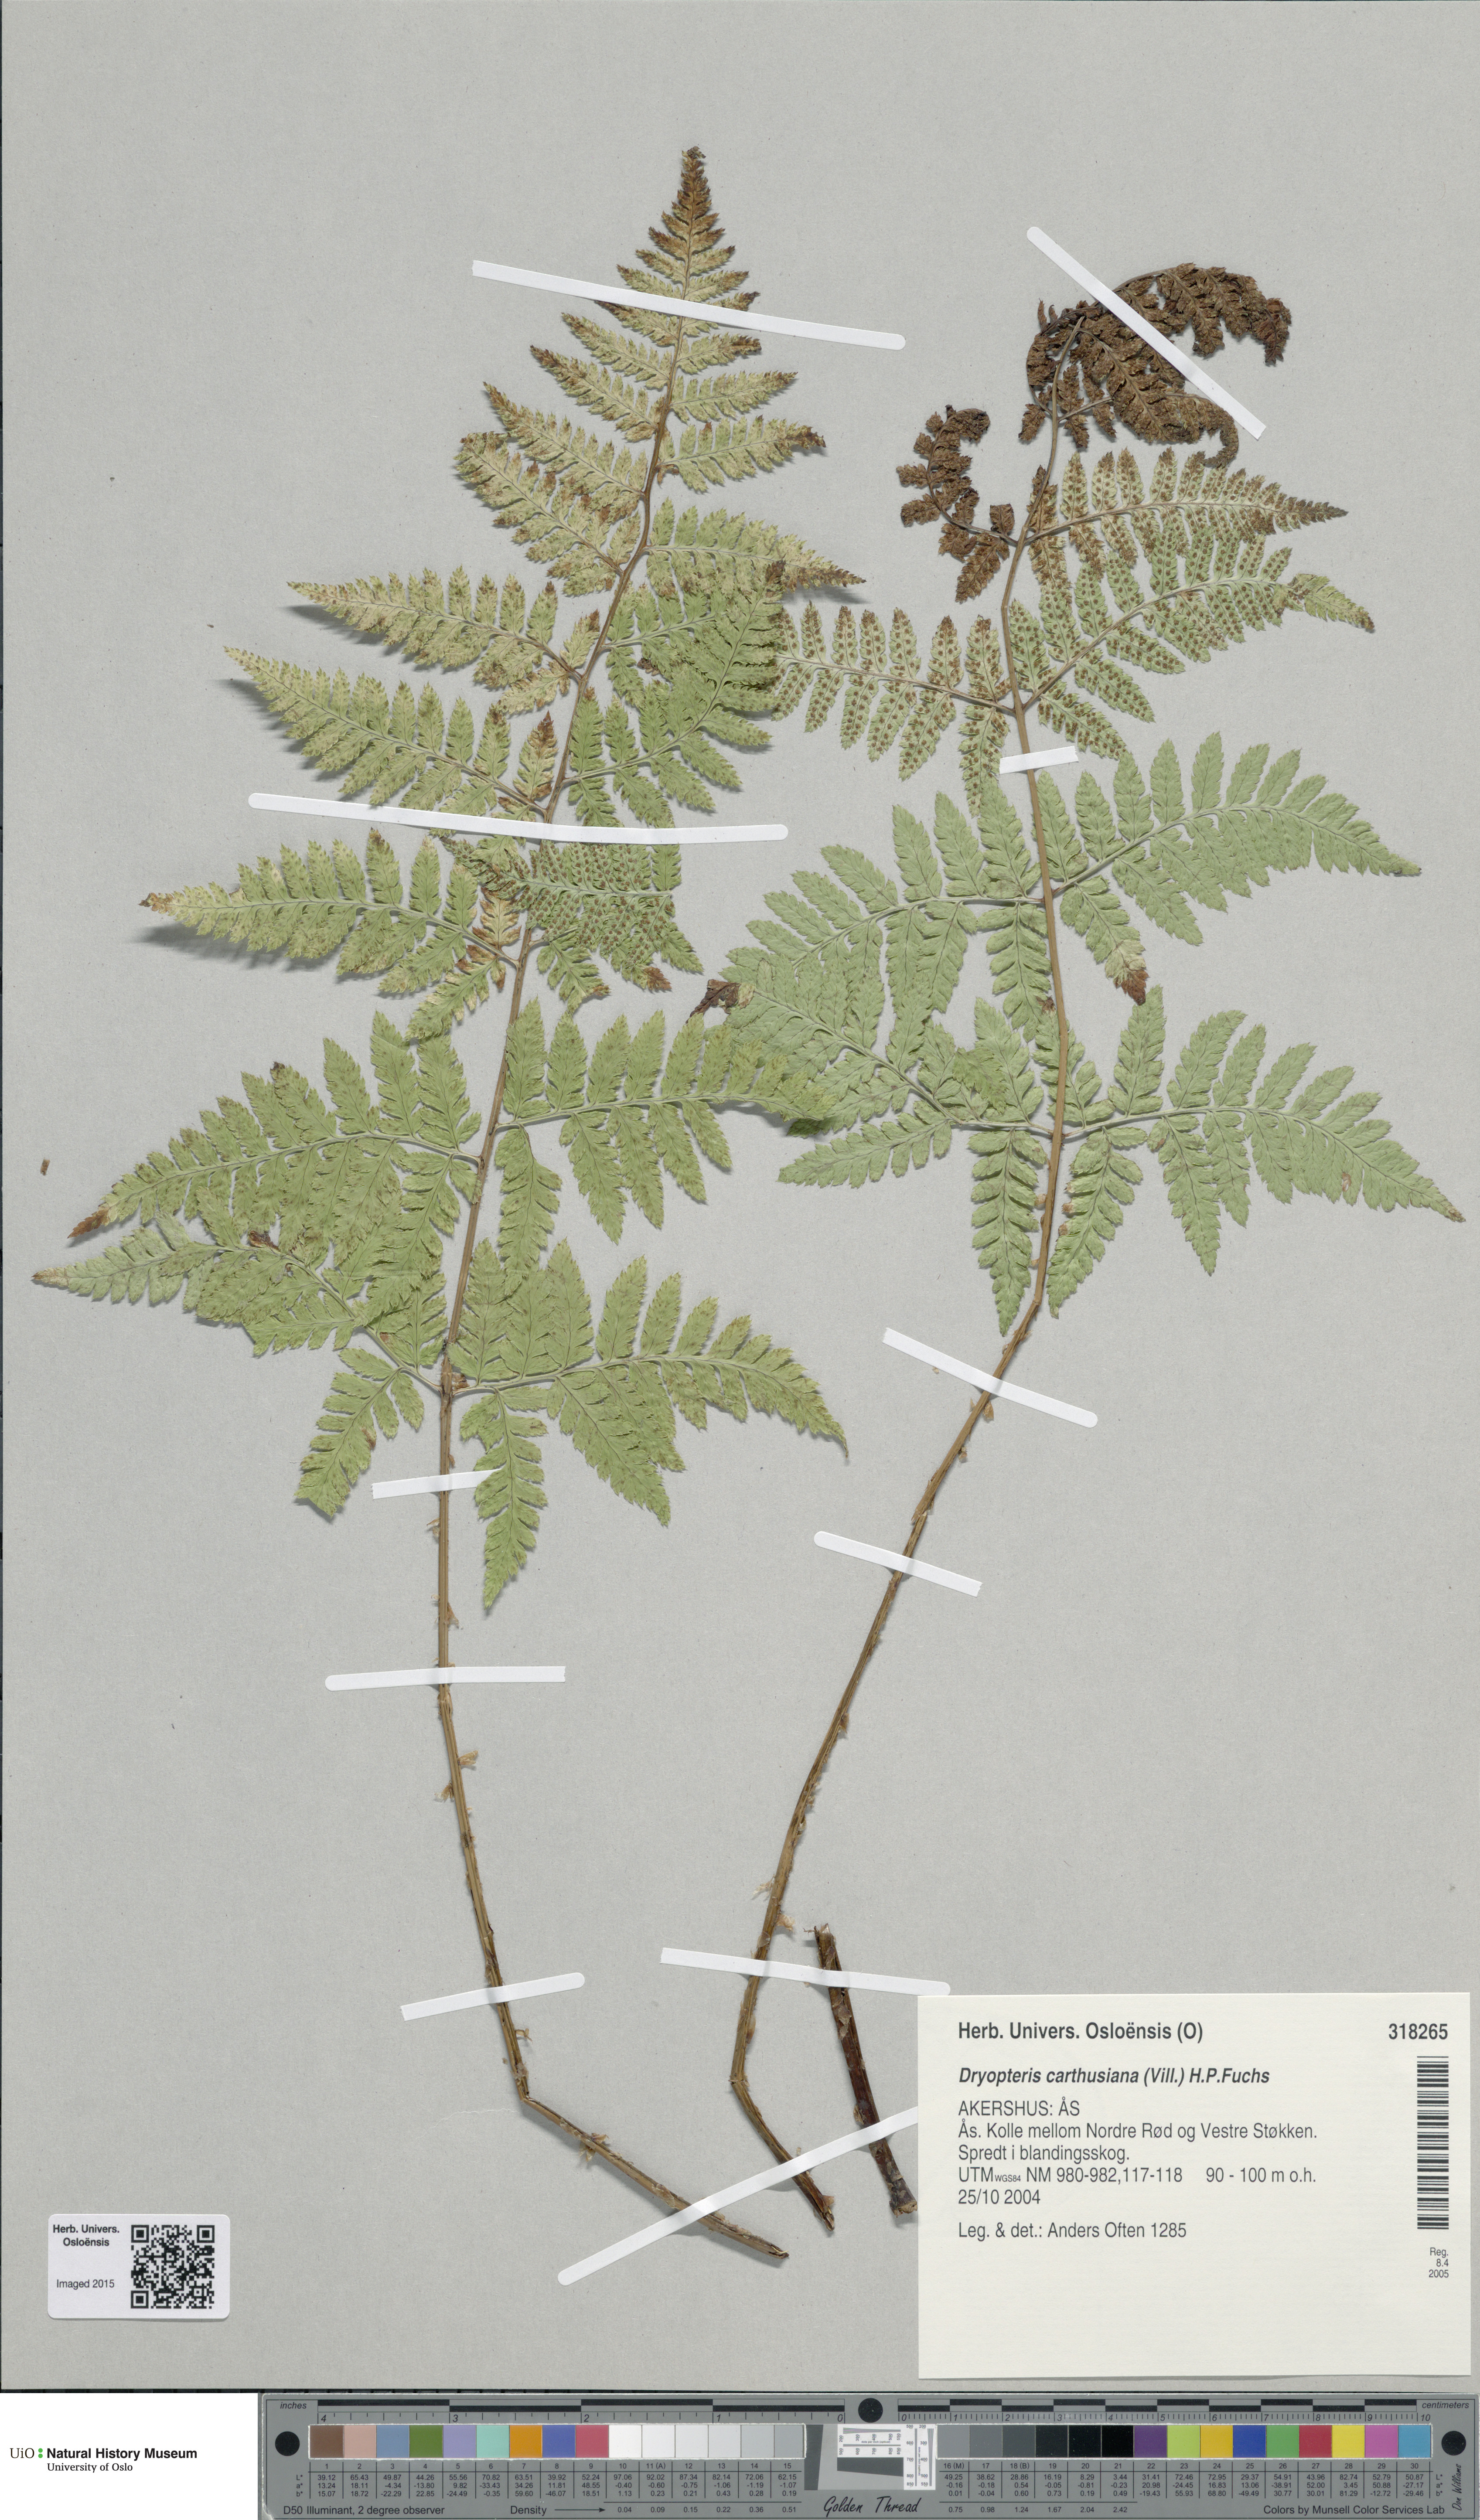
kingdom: Plantae
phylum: Tracheophyta
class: Polypodiopsida
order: Polypodiales
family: Dryopteridaceae
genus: Dryopteris
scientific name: Dryopteris carthusiana
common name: Narrow buckler-fern
